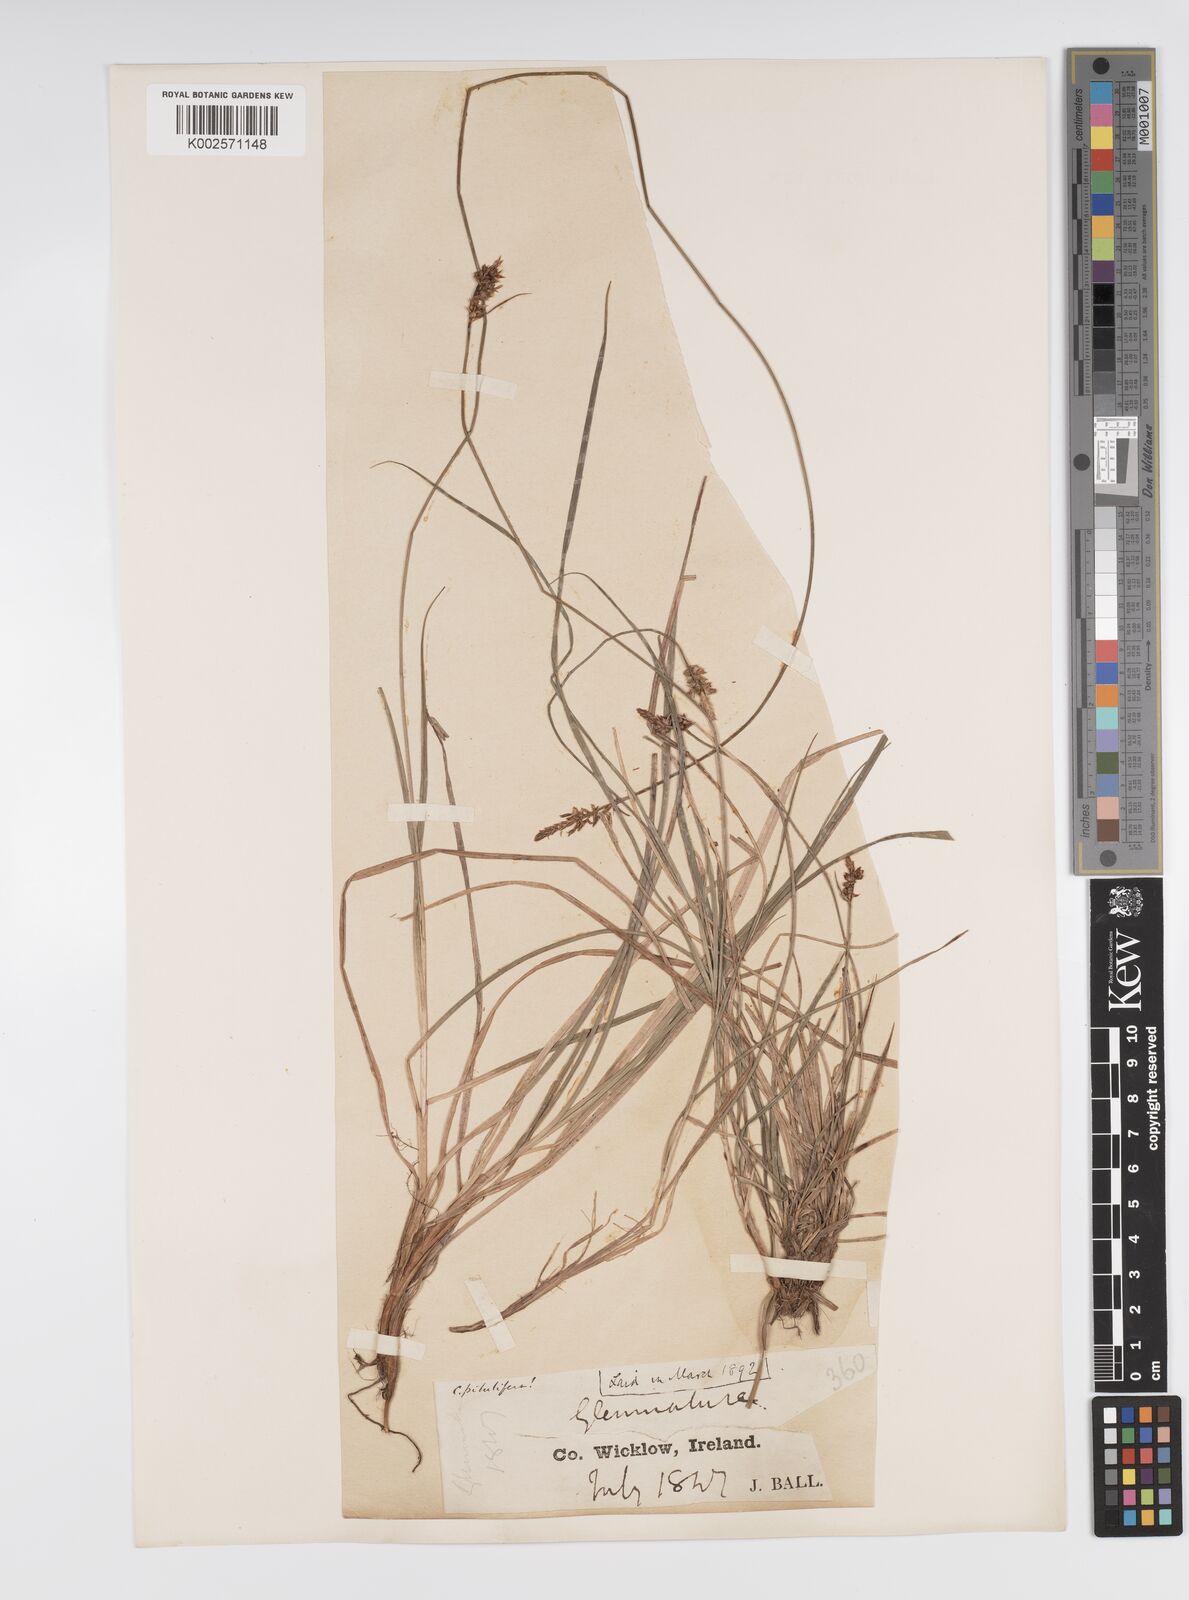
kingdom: Plantae
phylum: Tracheophyta
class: Liliopsida
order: Poales
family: Cyperaceae
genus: Carex
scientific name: Carex pilulifera
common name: Pill sedge
